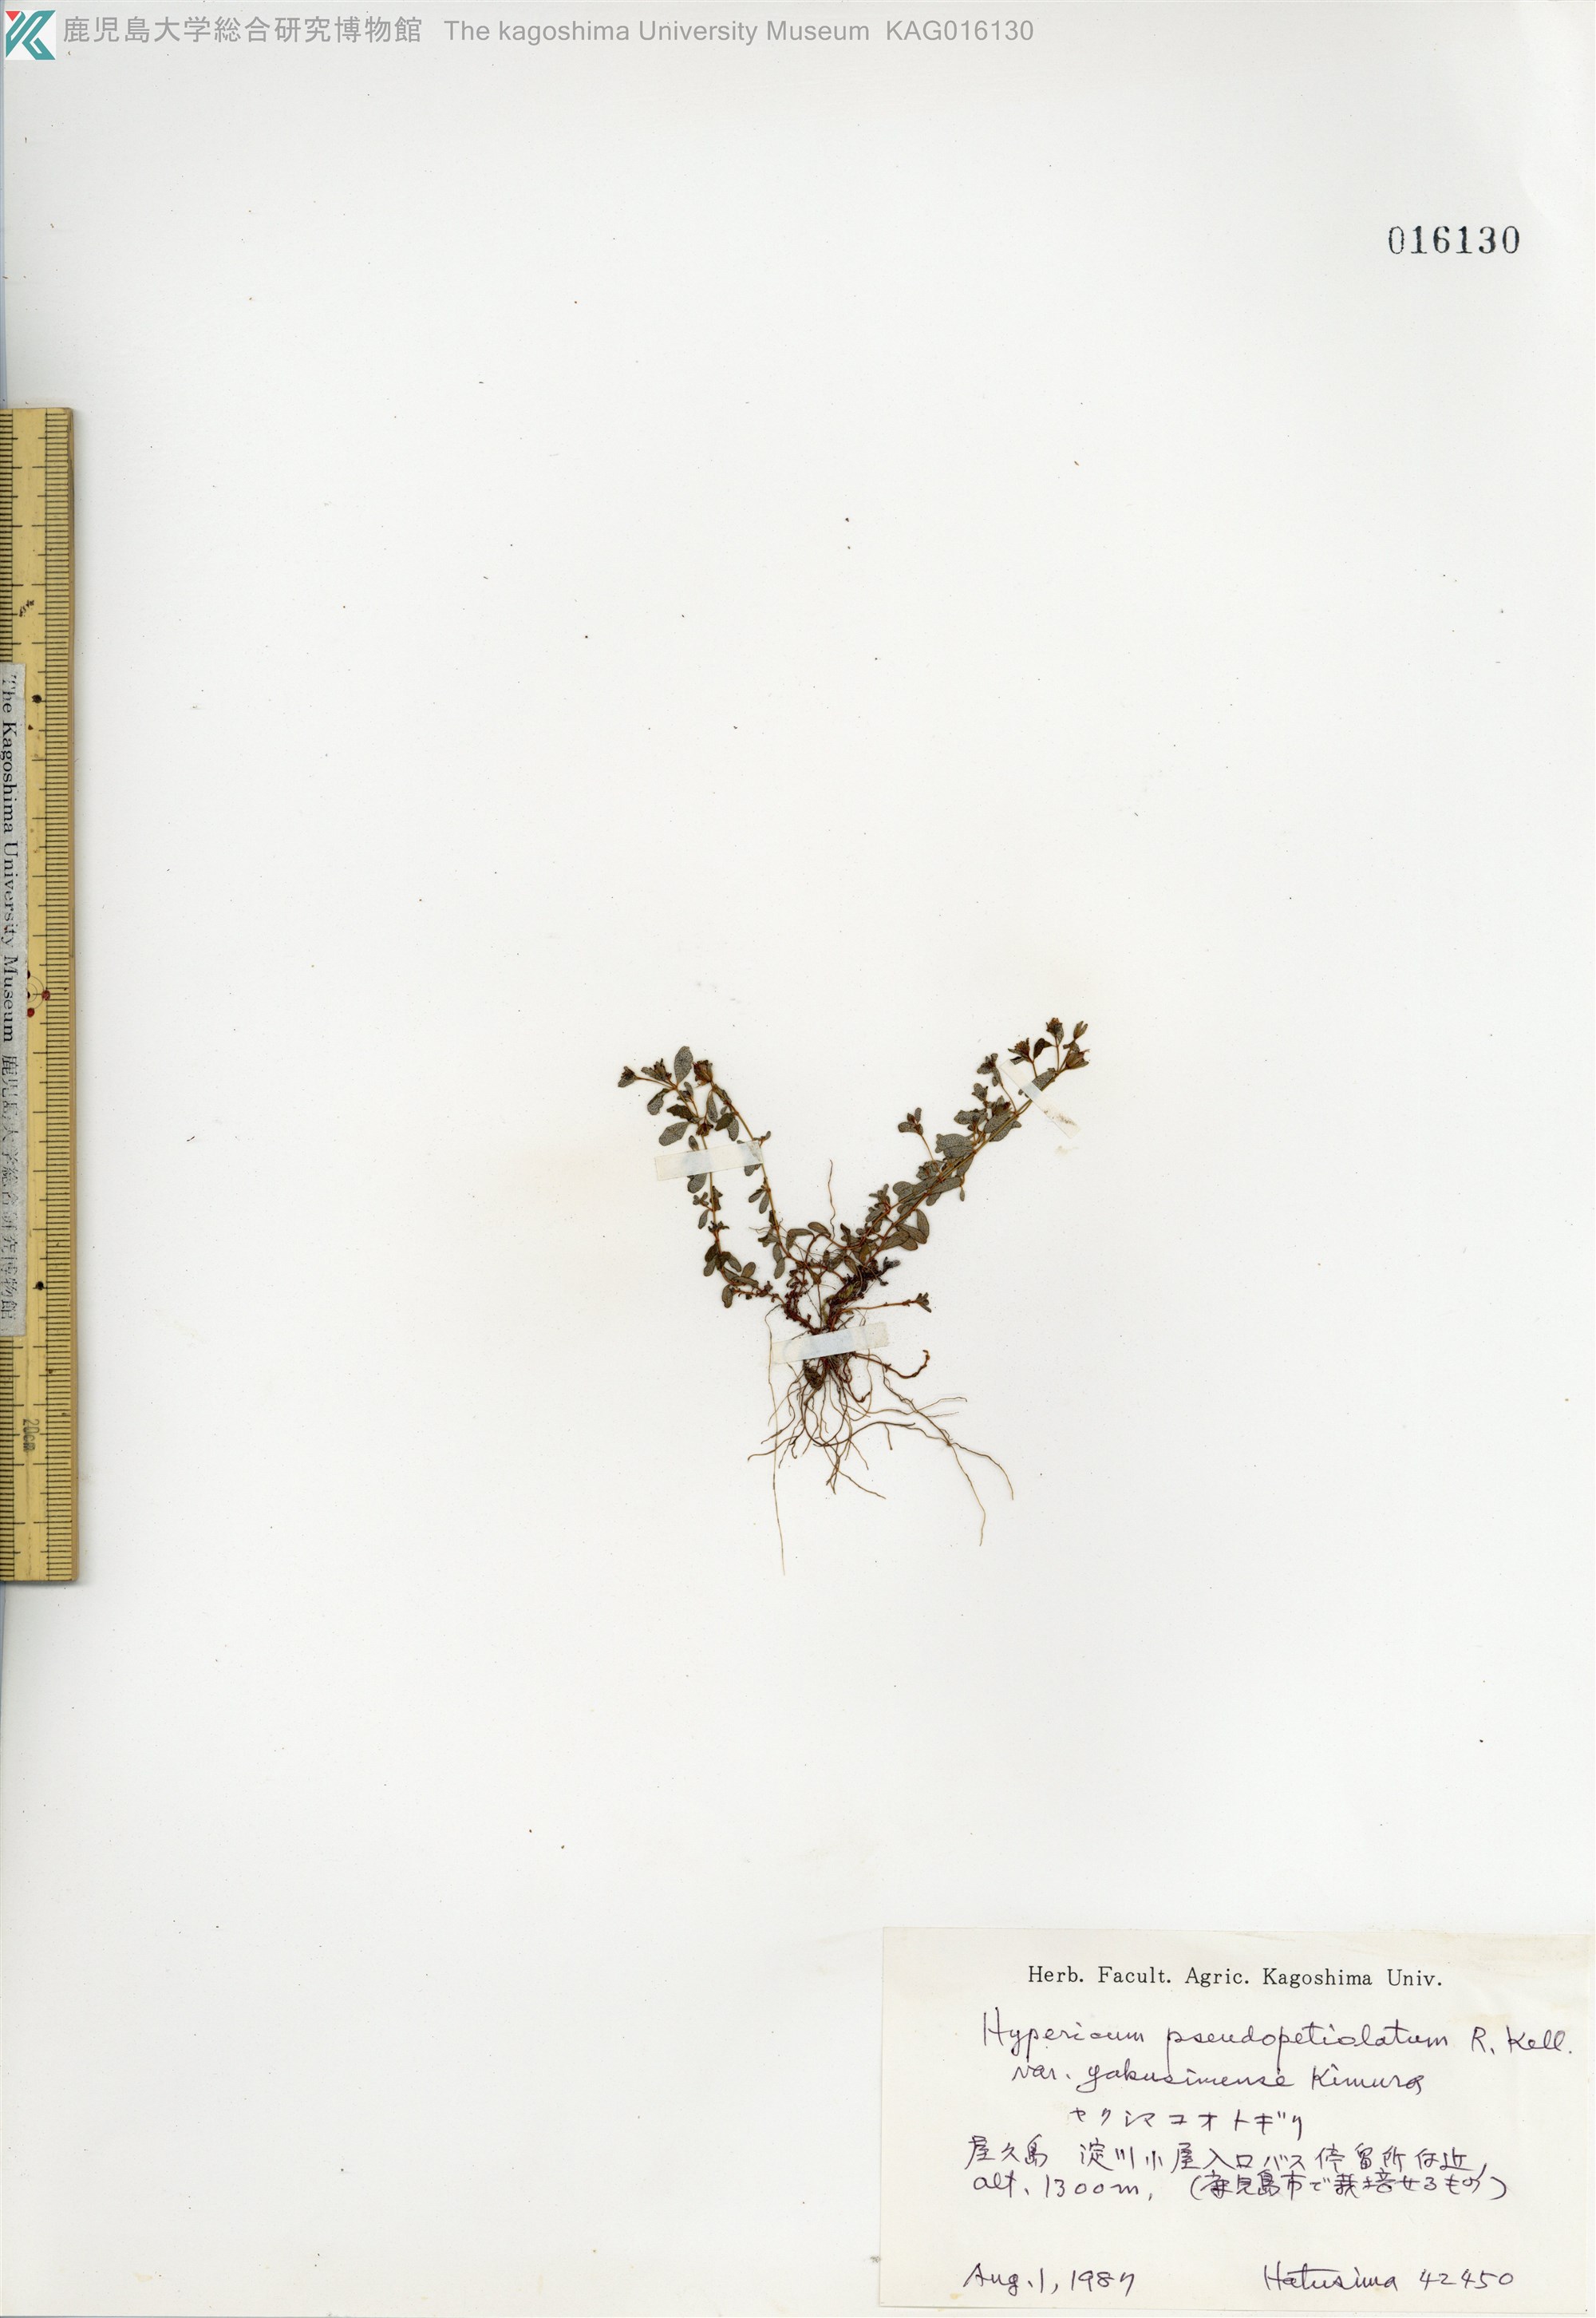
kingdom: Plantae
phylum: Tracheophyta
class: Magnoliopsida
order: Malpighiales
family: Hypericaceae
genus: Hypericum
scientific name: Hypericum pseudopetiolatum
